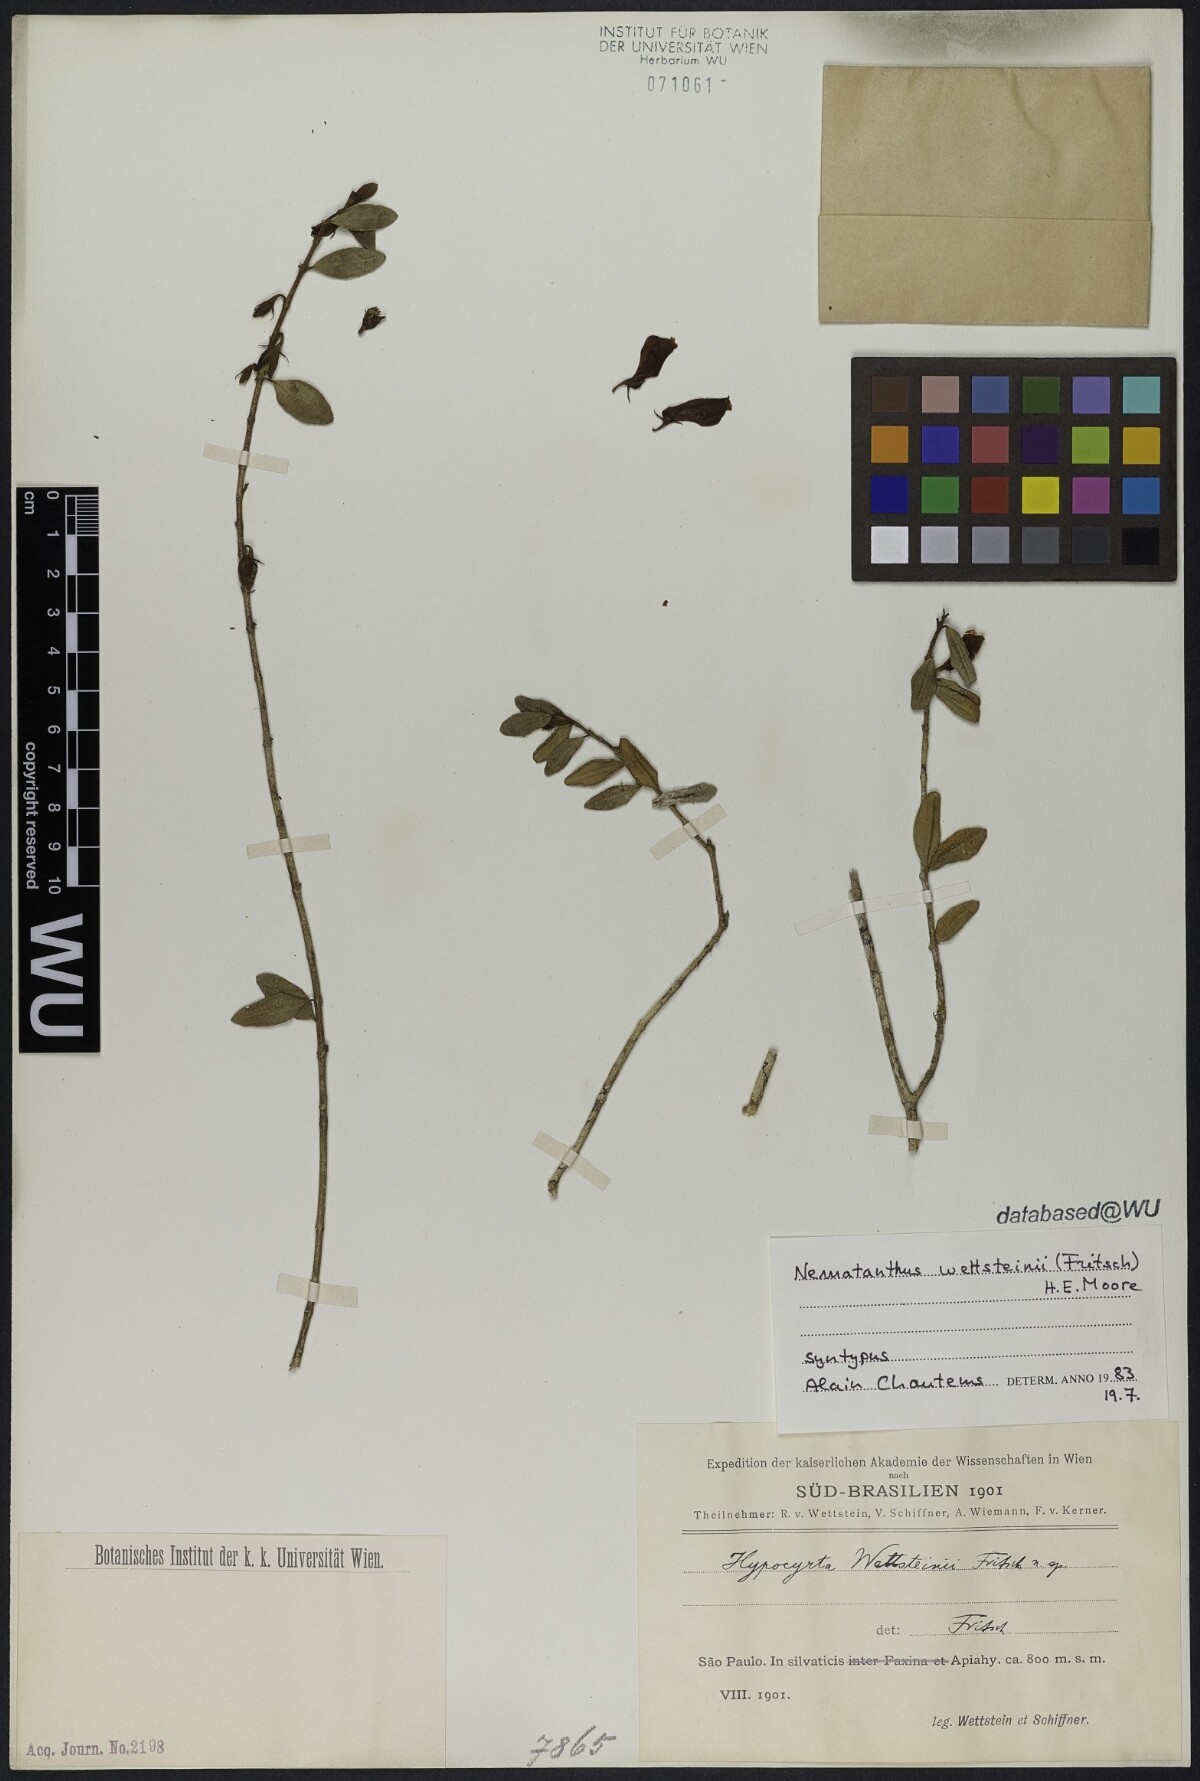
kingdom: Plantae
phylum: Tracheophyta
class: Magnoliopsida
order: Lamiales
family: Gesneriaceae
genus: Nematanthus
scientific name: Nematanthus wettsteinii
